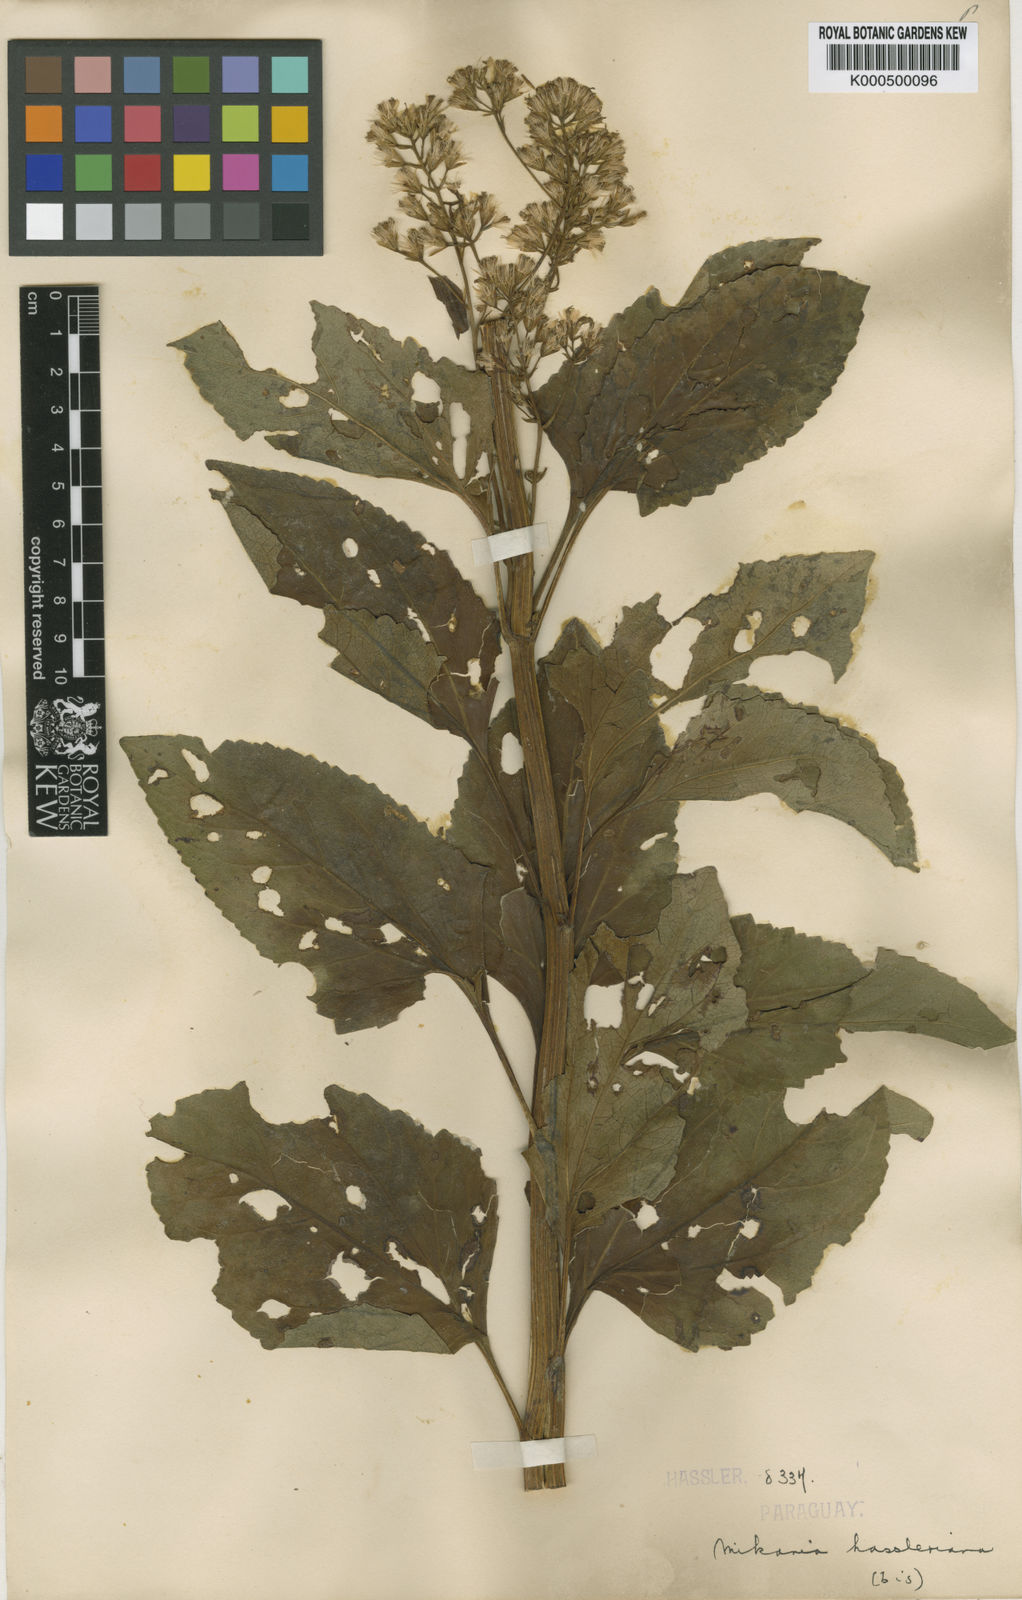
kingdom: Plantae
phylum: Tracheophyta
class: Magnoliopsida
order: Asterales
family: Asteraceae
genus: Mikania
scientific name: Mikania fulva
